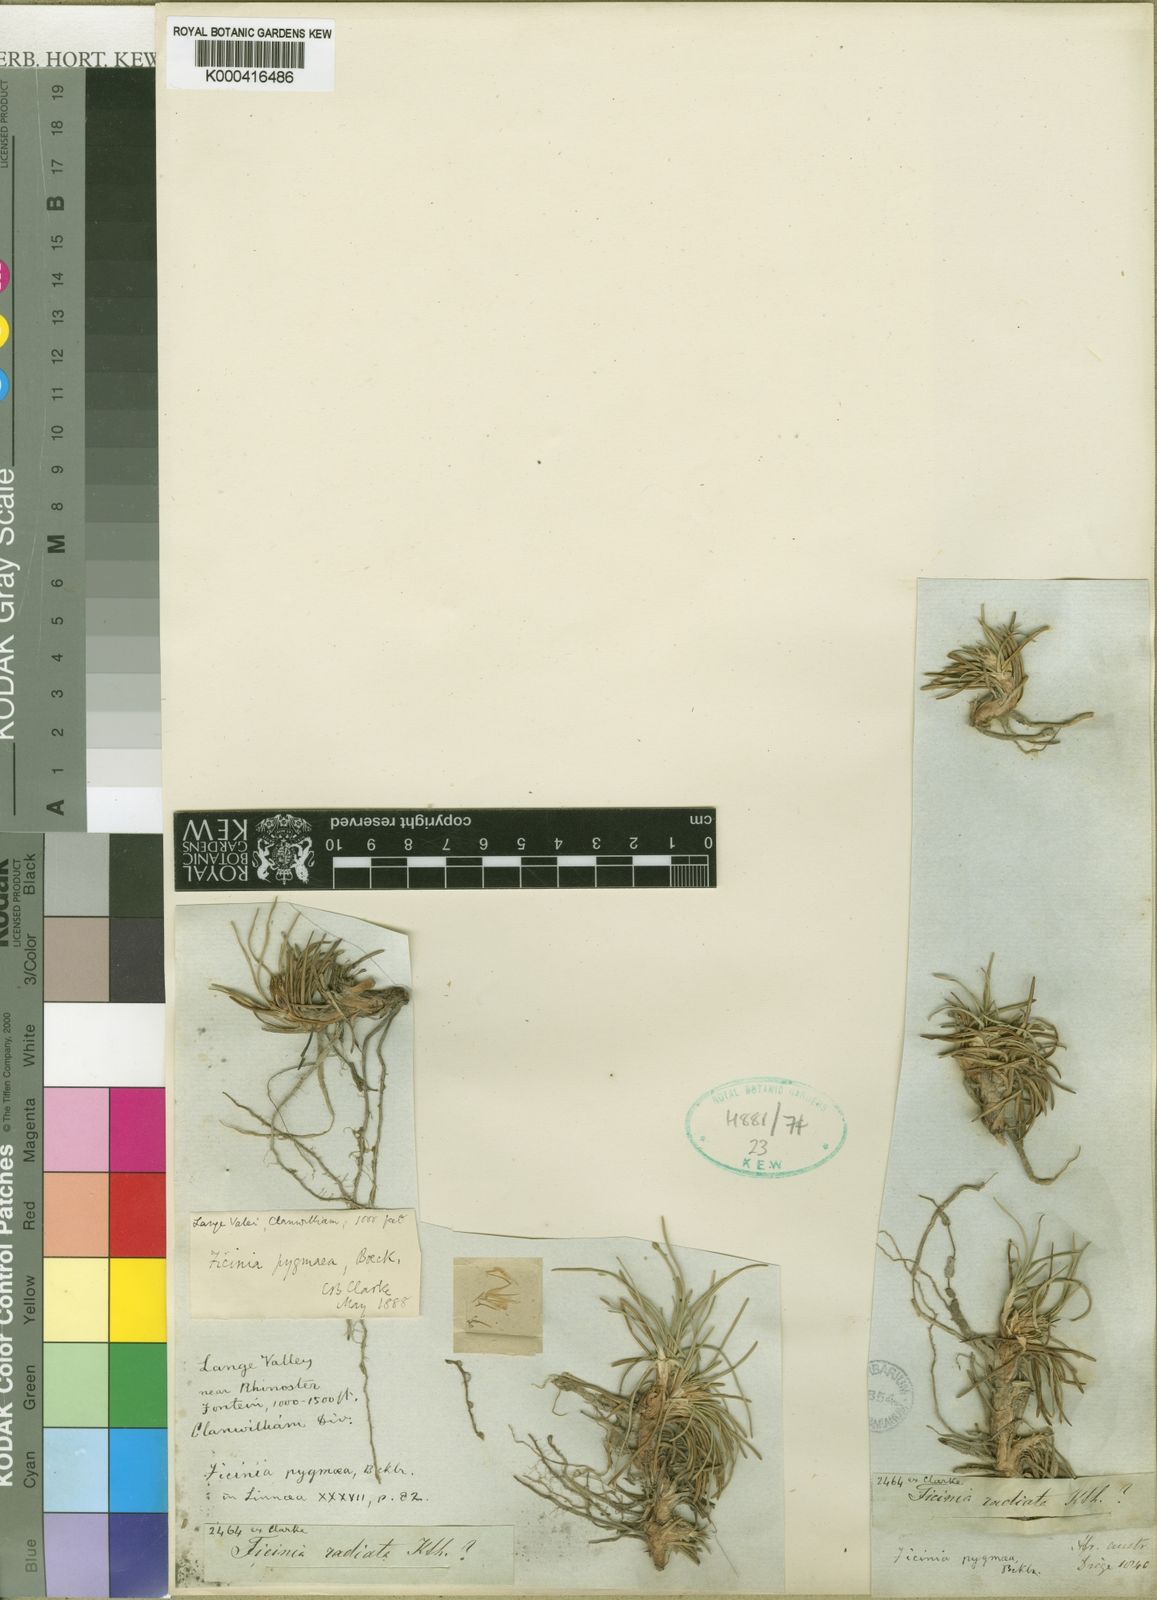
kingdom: Plantae
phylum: Tracheophyta
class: Liliopsida
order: Poales
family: Cyperaceae
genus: Ficinia
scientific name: Ficinia pygmaea
